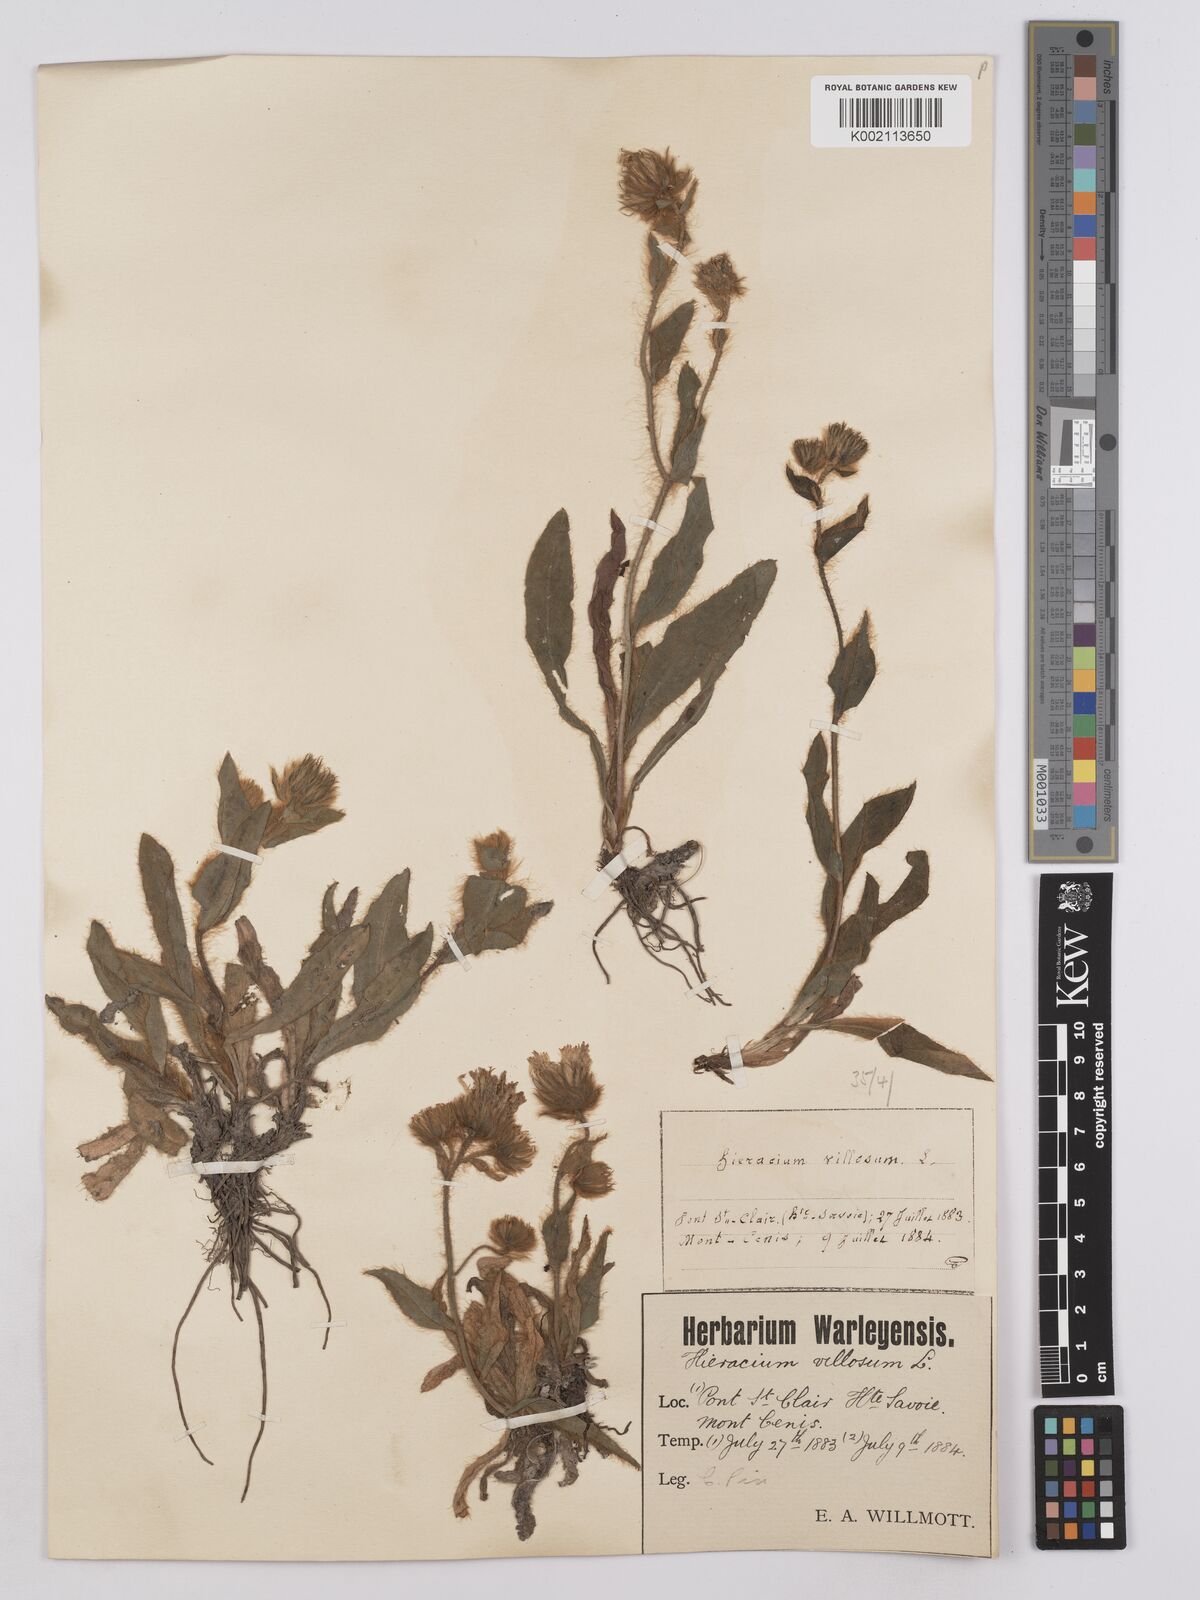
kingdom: Plantae
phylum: Tracheophyta
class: Magnoliopsida
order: Asterales
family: Asteraceae
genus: Hieracium
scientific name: Hieracium villosum
